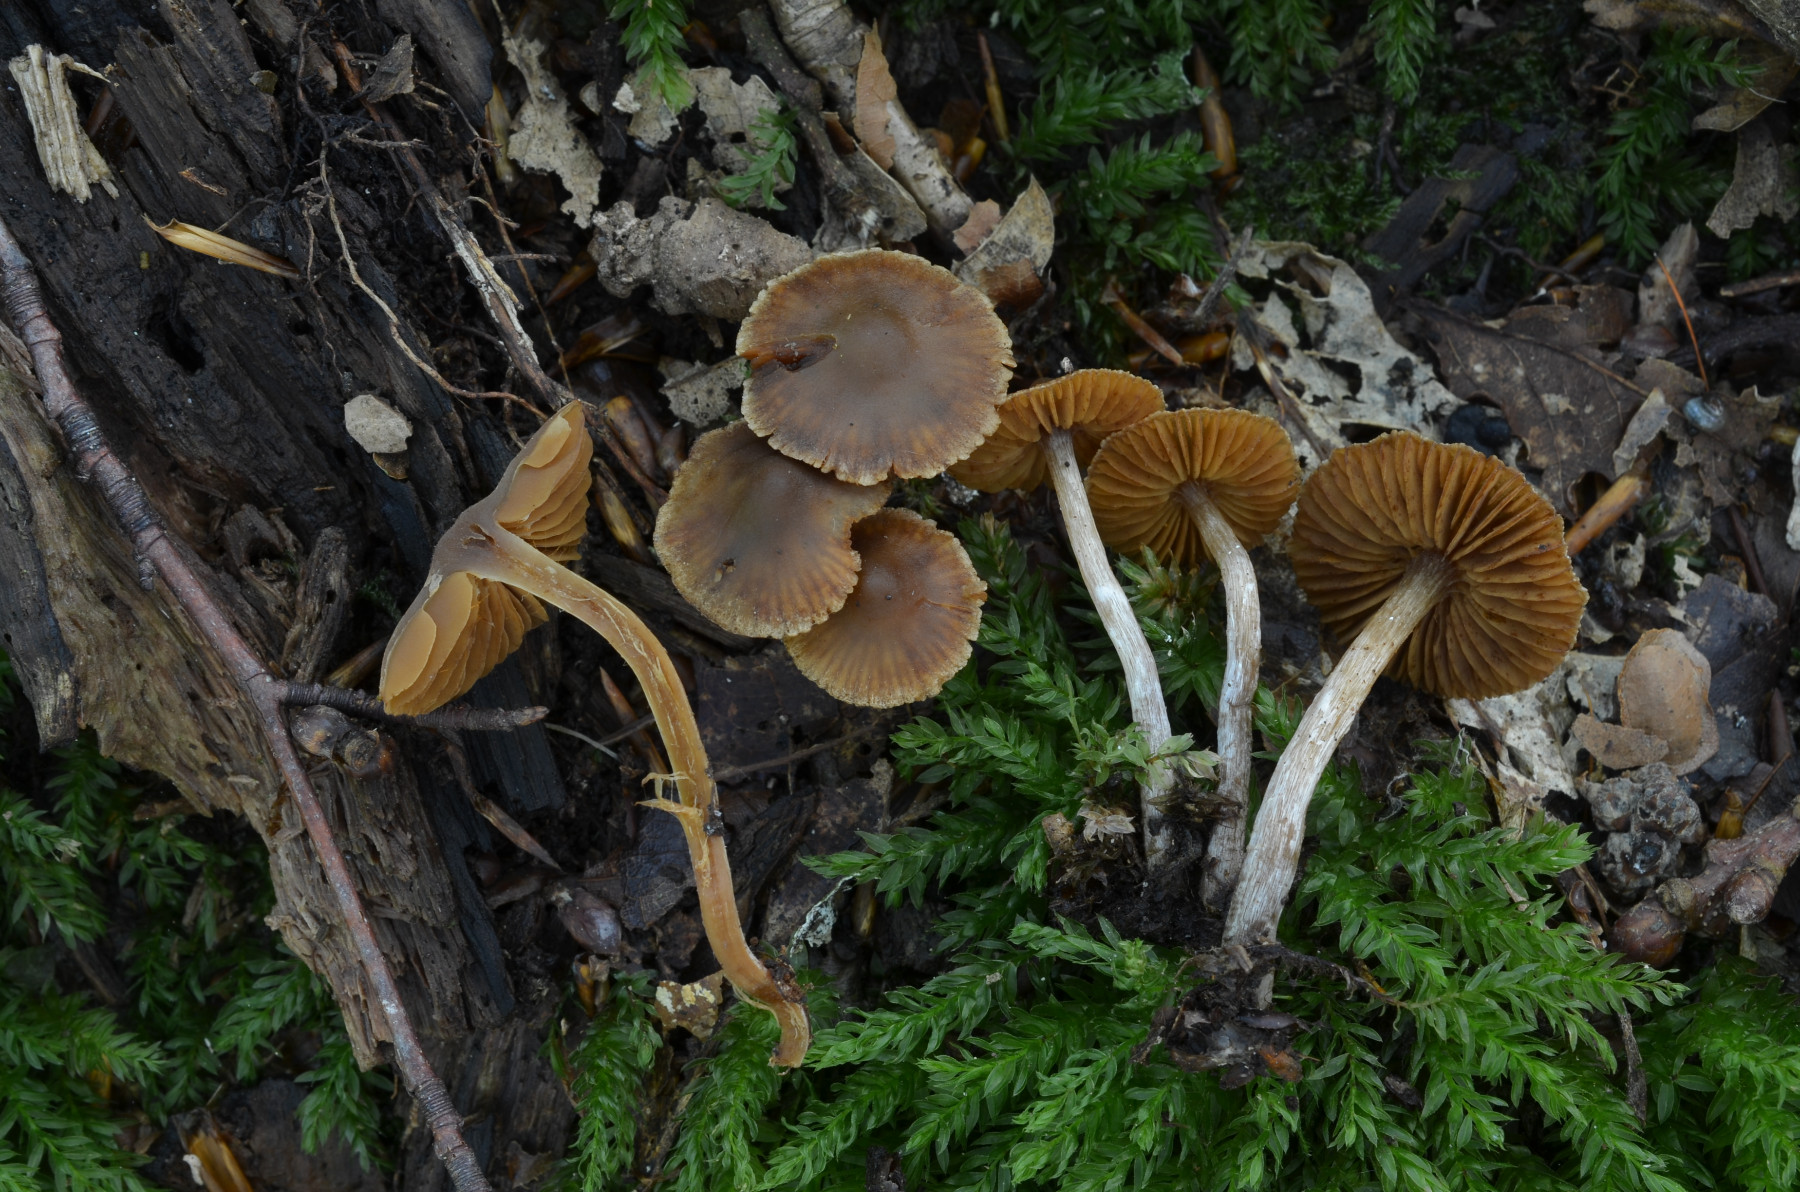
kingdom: Fungi
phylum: Basidiomycota
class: Agaricomycetes
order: Agaricales
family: Cortinariaceae
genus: Cortinarius
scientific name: Cortinarius pilatii
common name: Piláts slørhat
